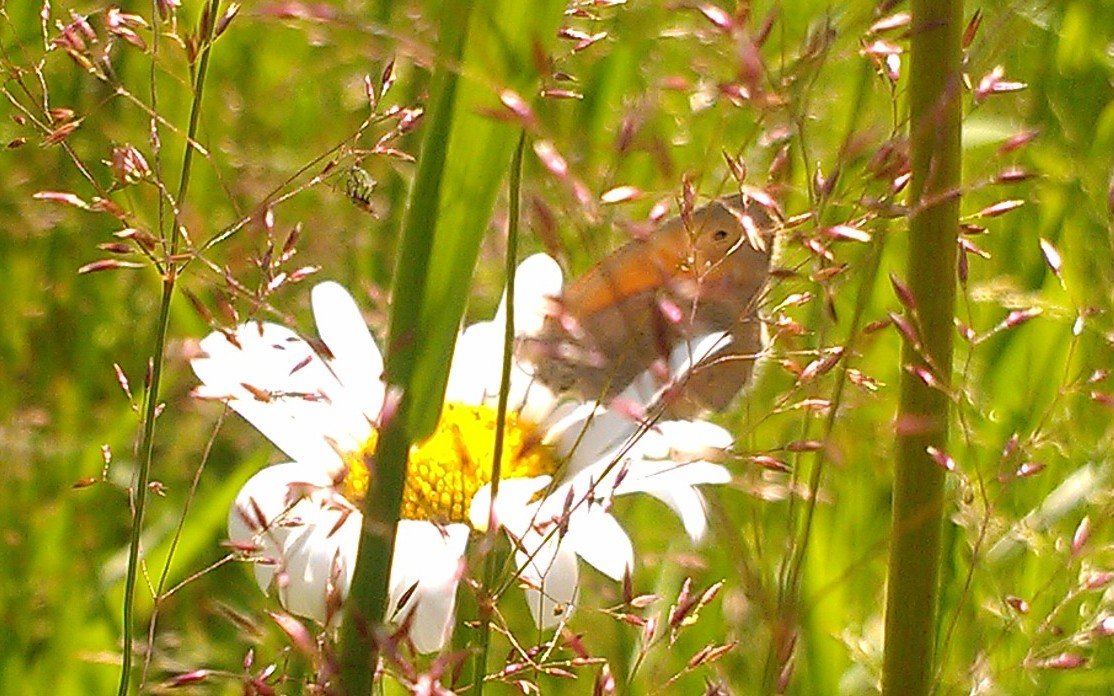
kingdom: Animalia
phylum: Arthropoda
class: Insecta
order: Lepidoptera
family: Nymphalidae
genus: Coenonympha
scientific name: Coenonympha tullia
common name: Large Heath
